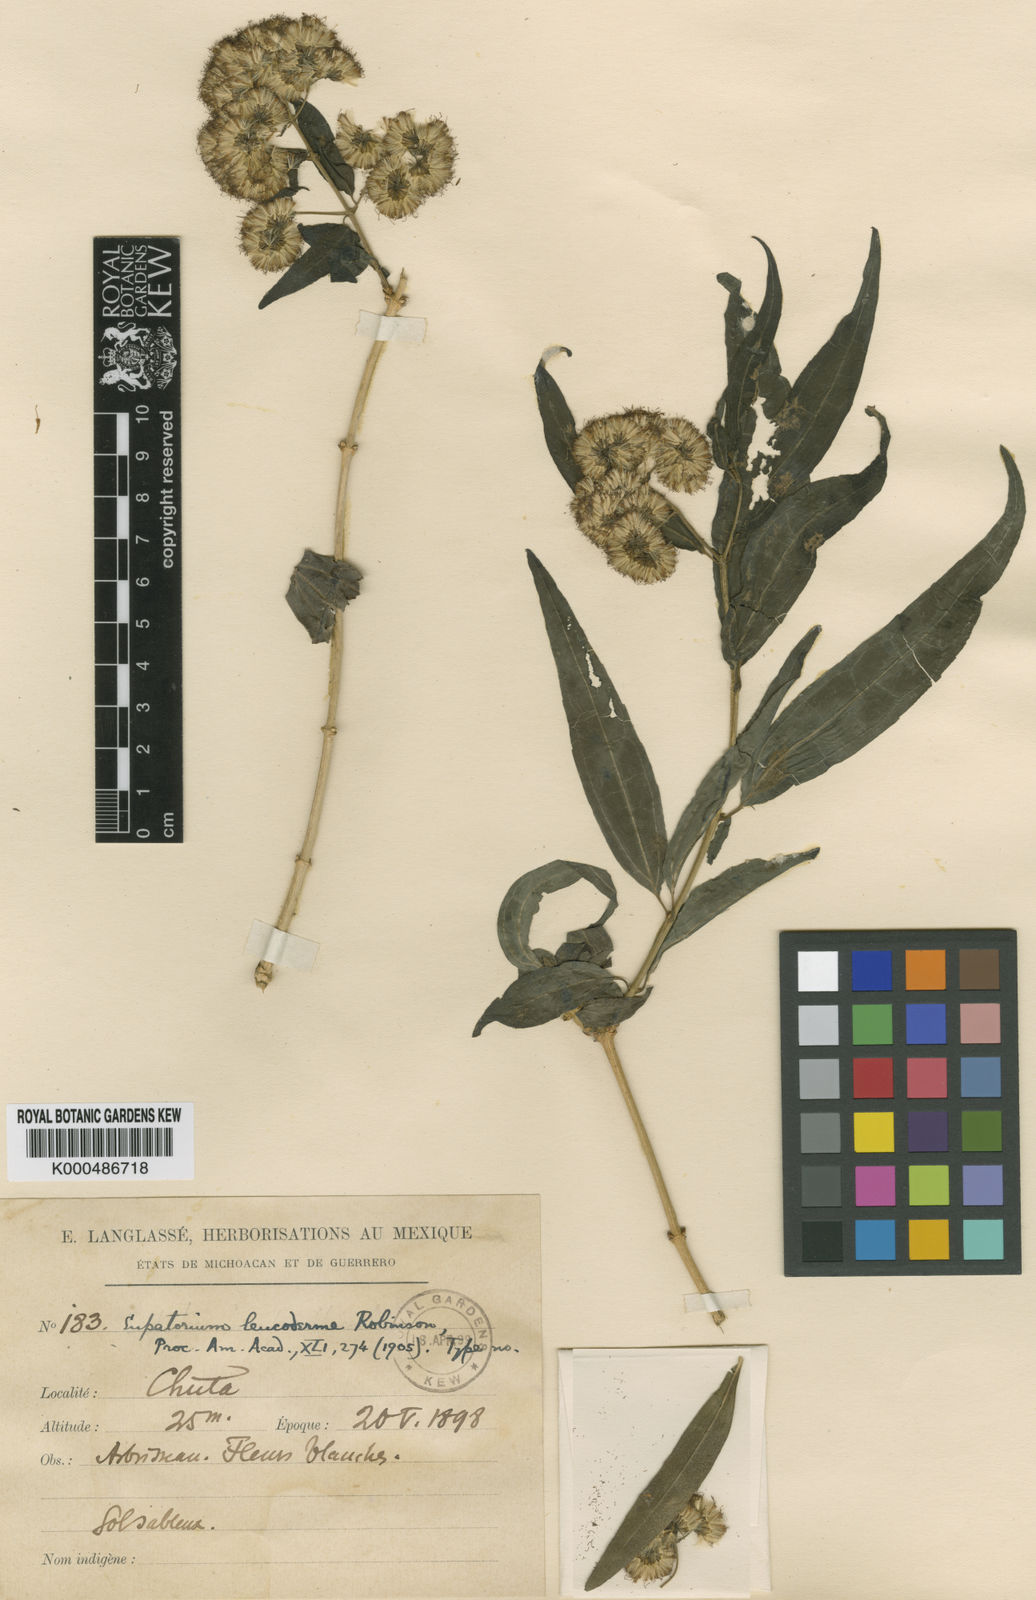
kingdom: Plantae
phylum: Tracheophyta
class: Magnoliopsida
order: Asterales
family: Asteraceae
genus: Koanophyllon
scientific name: Koanophyllon albicaule
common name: Old women's walking stick
